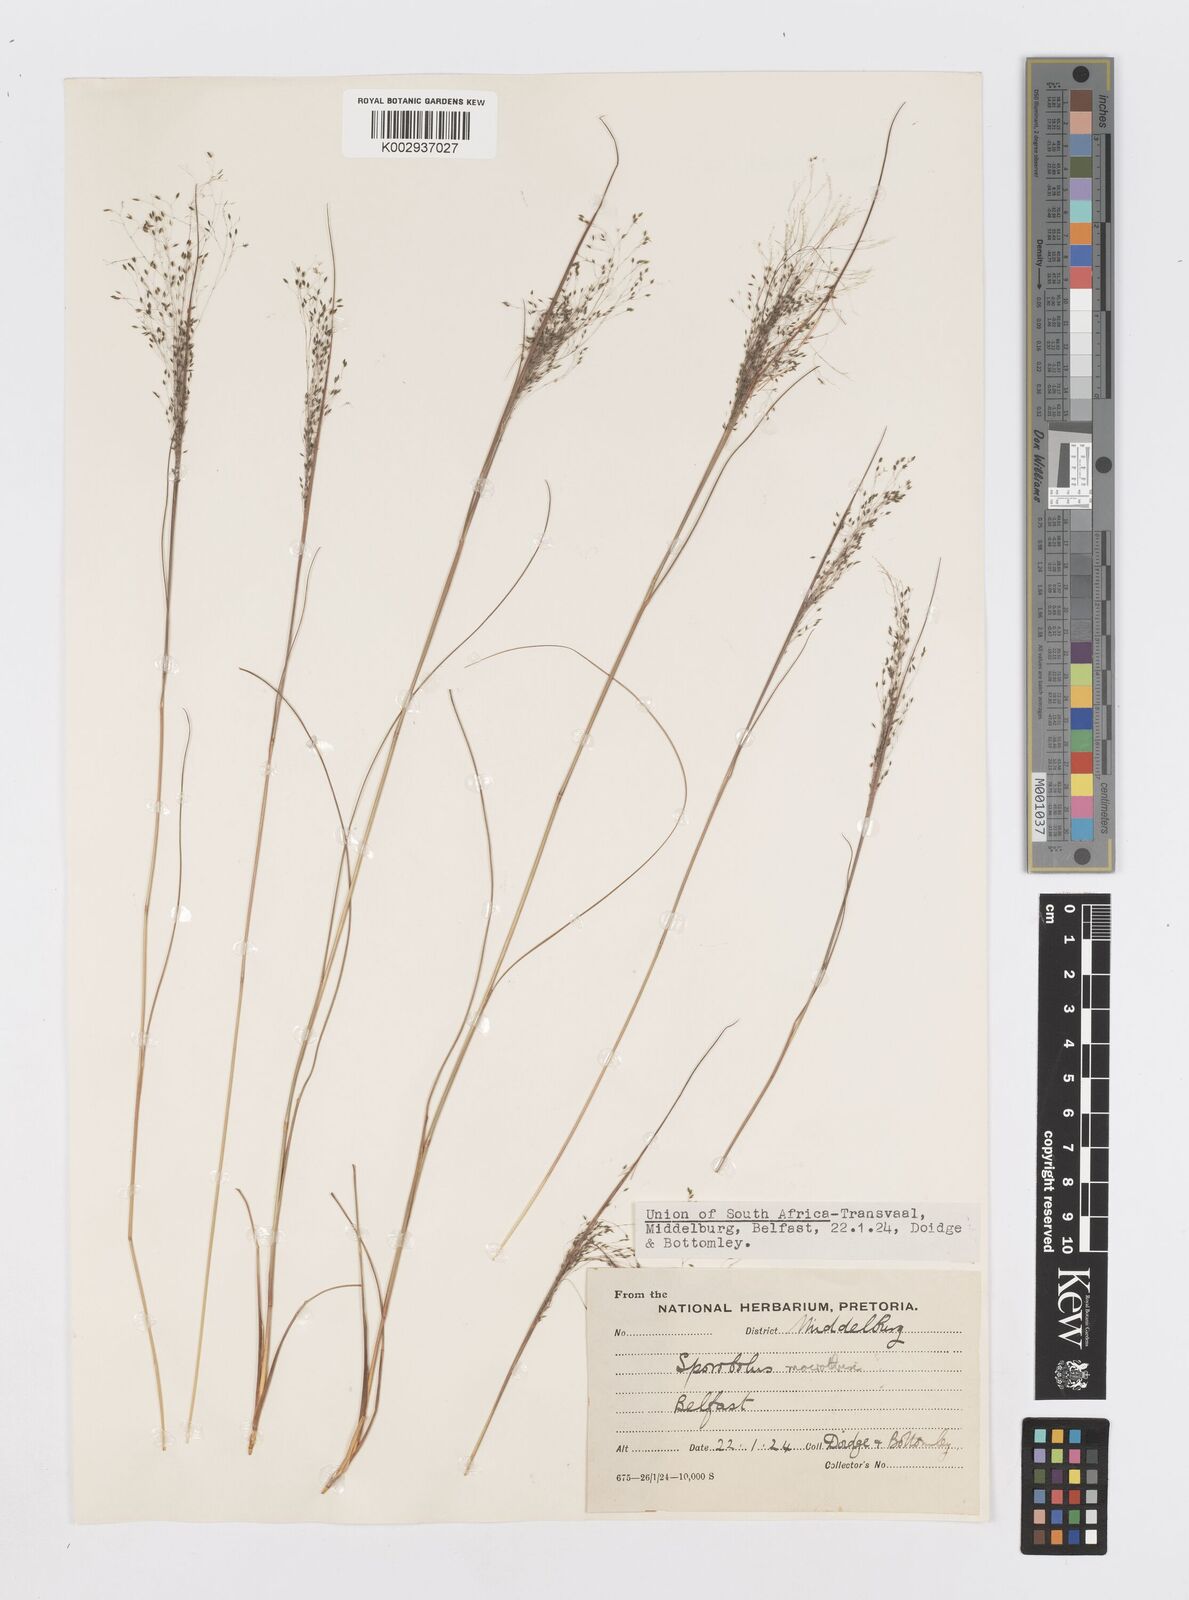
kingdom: Plantae
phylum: Tracheophyta
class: Liliopsida
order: Poales
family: Poaceae
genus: Sporobolus
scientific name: Sporobolus welwitschii
